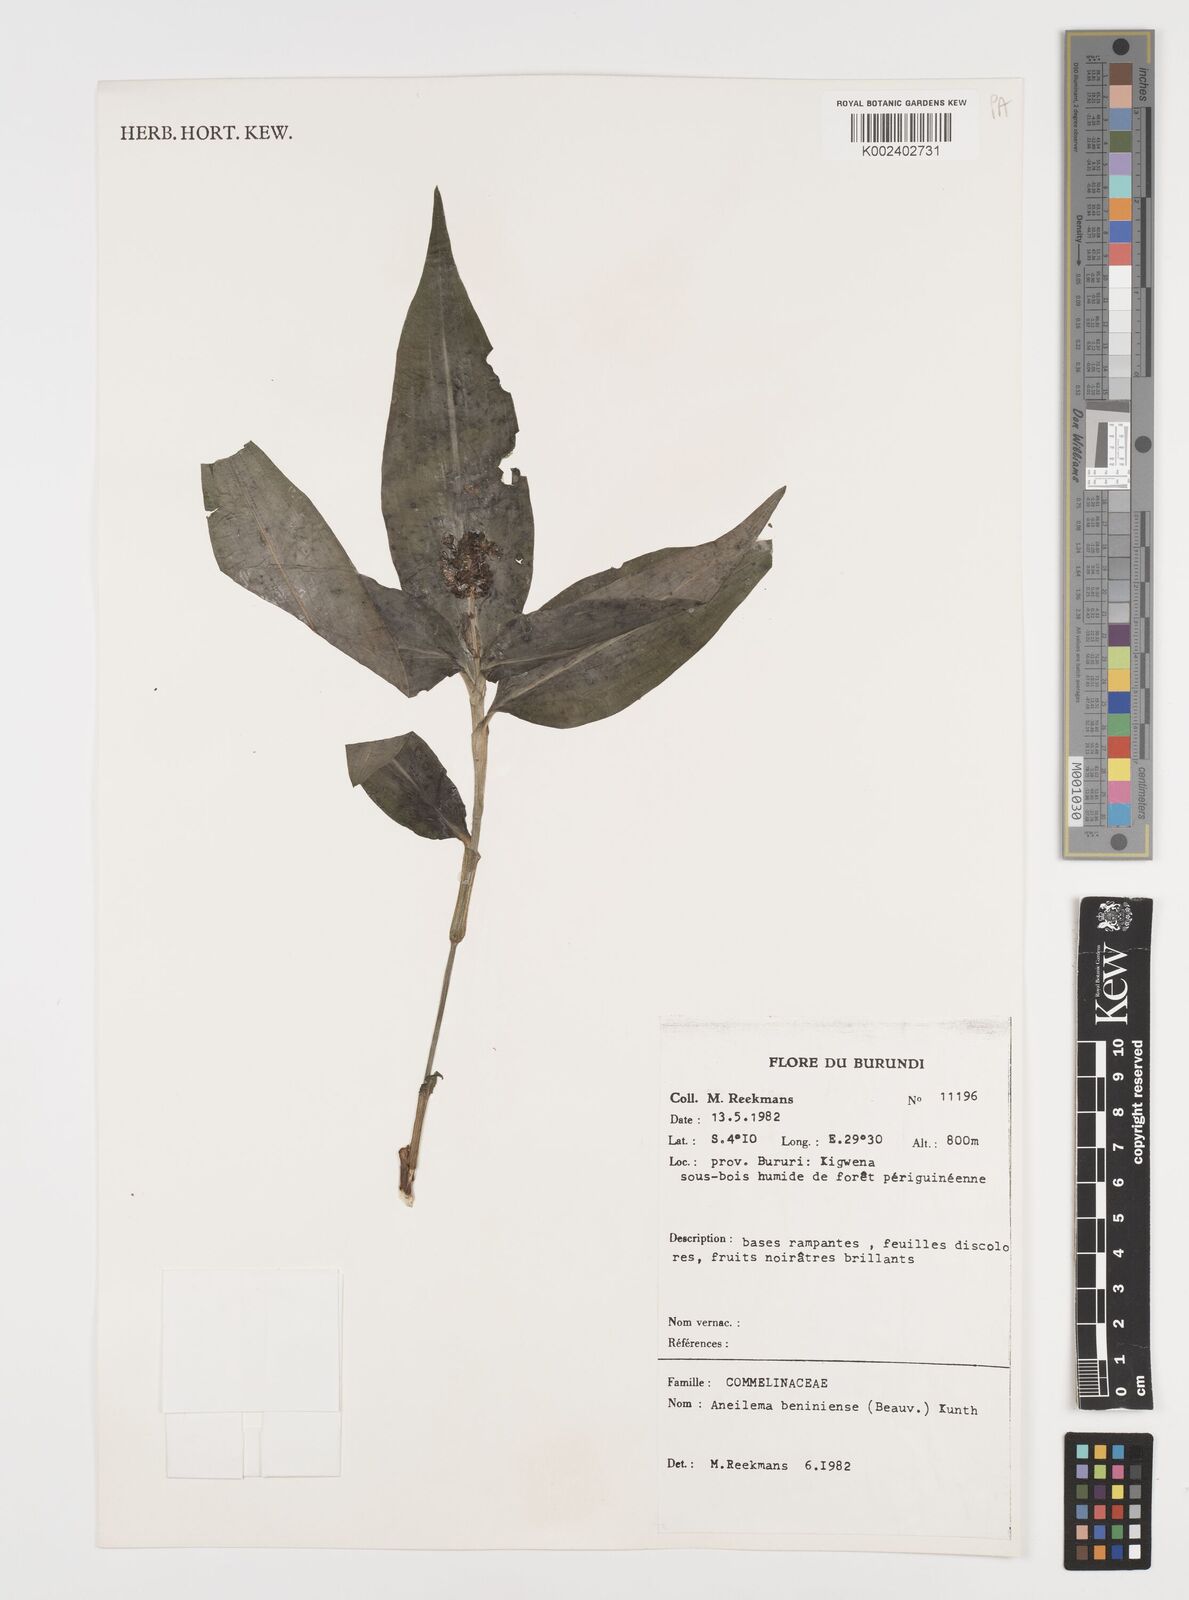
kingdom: Plantae
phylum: Tracheophyta
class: Liliopsida
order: Commelinales
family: Commelinaceae
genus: Aneilema
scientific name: Aneilema beniniense
